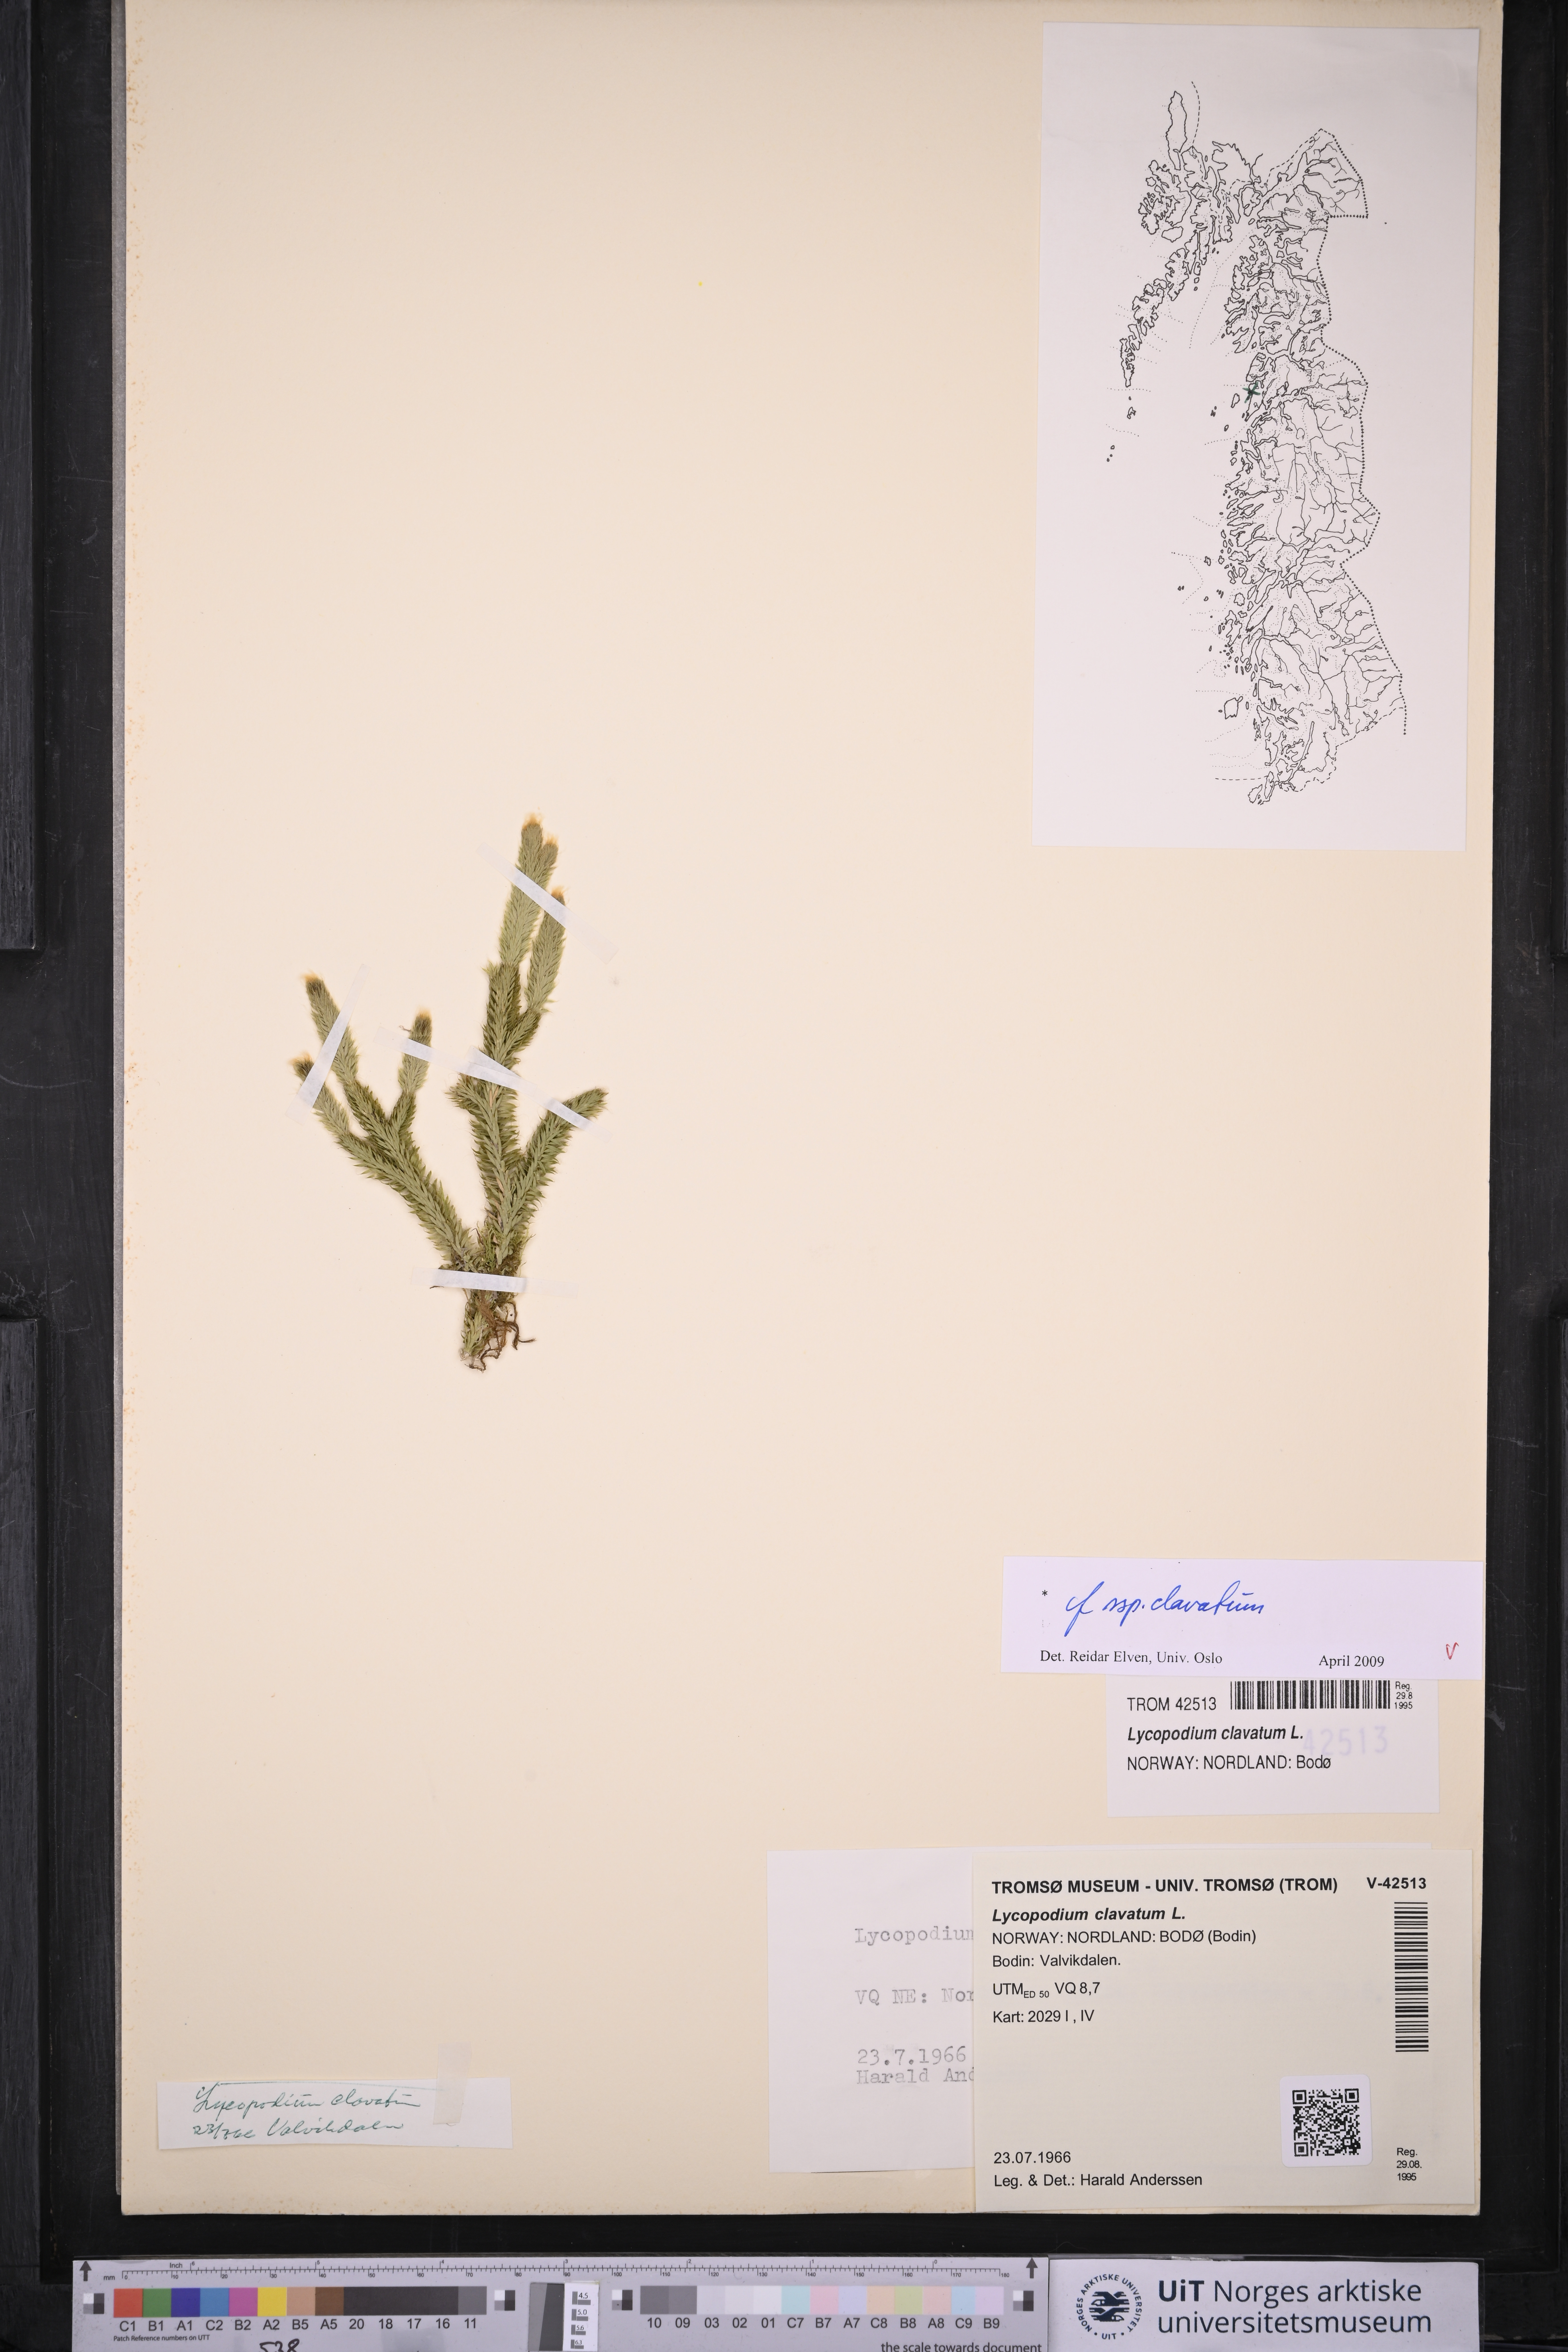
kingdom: Plantae
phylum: Tracheophyta
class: Lycopodiopsida
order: Lycopodiales
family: Lycopodiaceae
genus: Lycopodium
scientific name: Lycopodium clavatum
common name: Stag's-horn clubmoss
